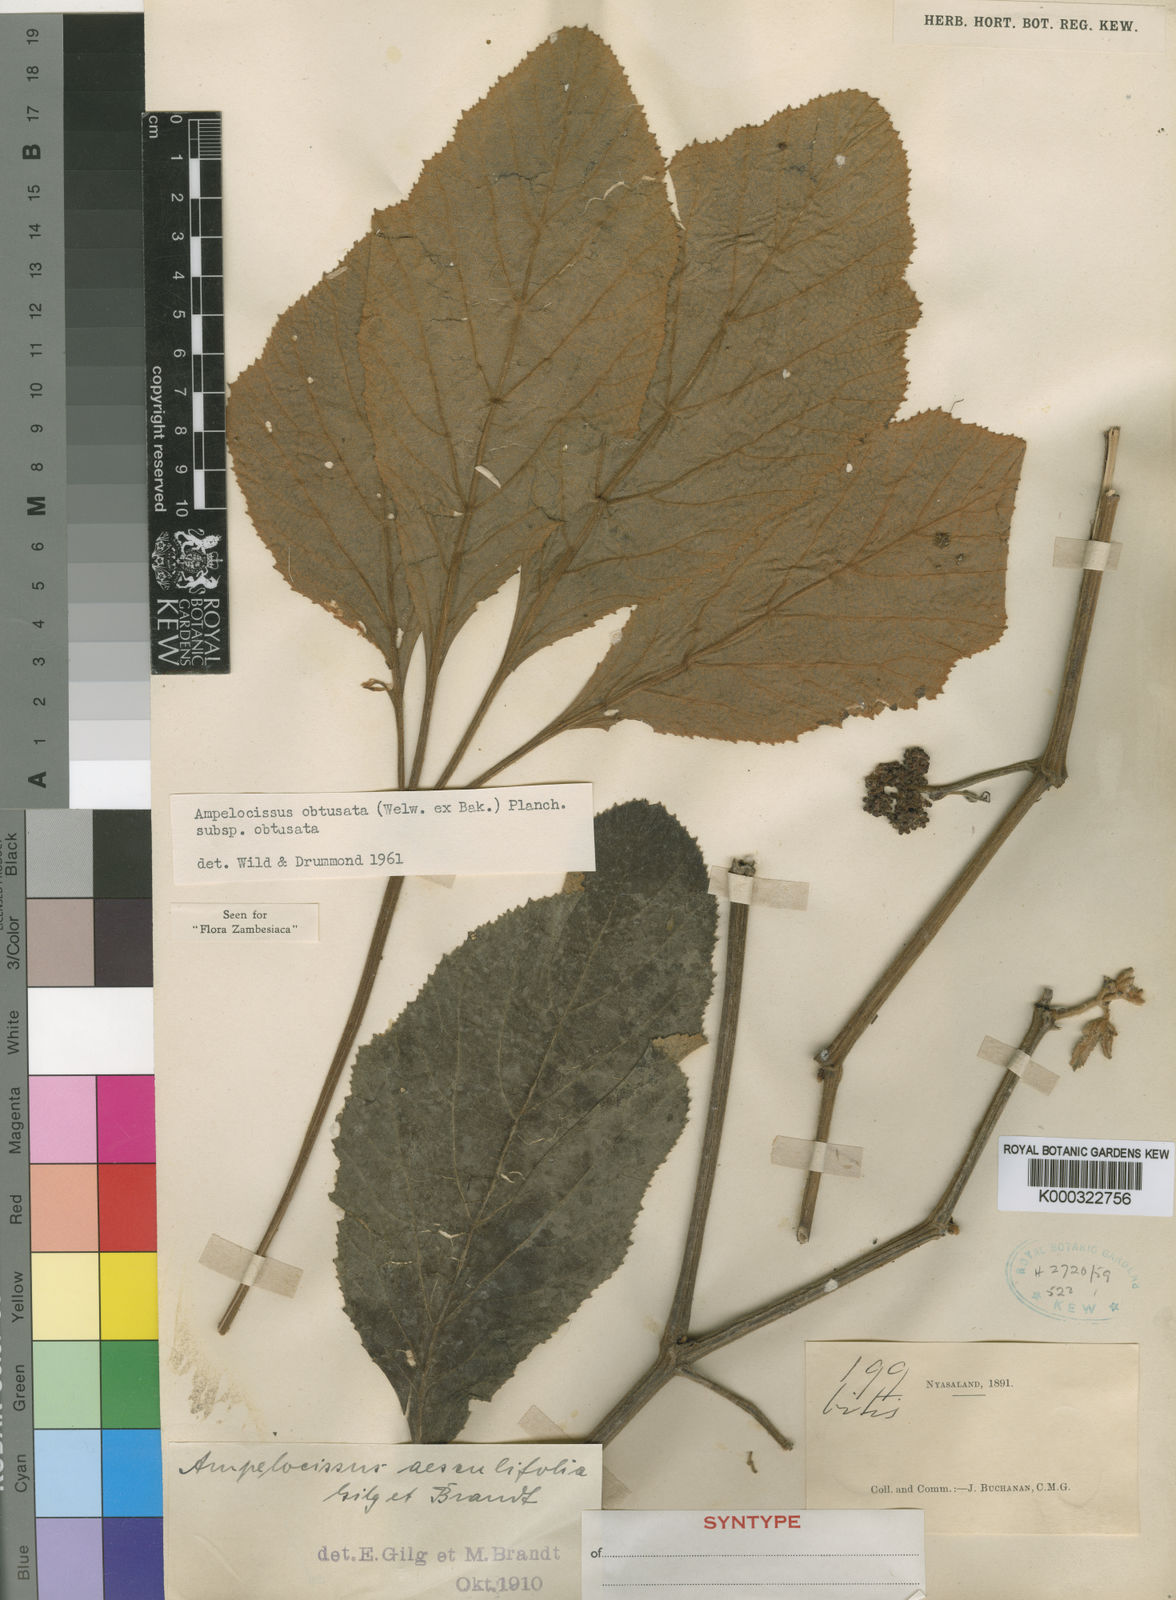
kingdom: Plantae
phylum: Tracheophyta
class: Magnoliopsida
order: Vitales
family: Vitaceae
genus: Ampelocissus
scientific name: Ampelocissus obtusata
